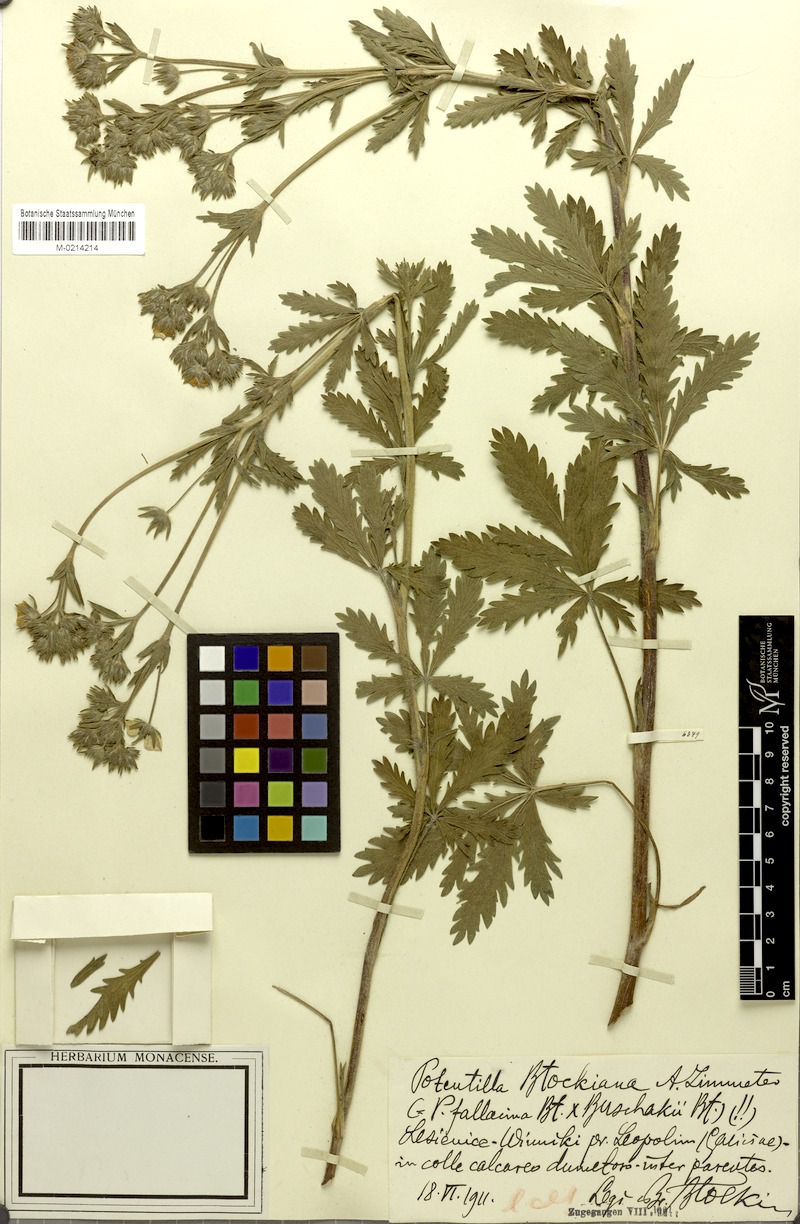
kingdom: Plantae
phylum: Tracheophyta
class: Magnoliopsida
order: Rosales
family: Rosaceae
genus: Potentilla
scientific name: Potentilla
